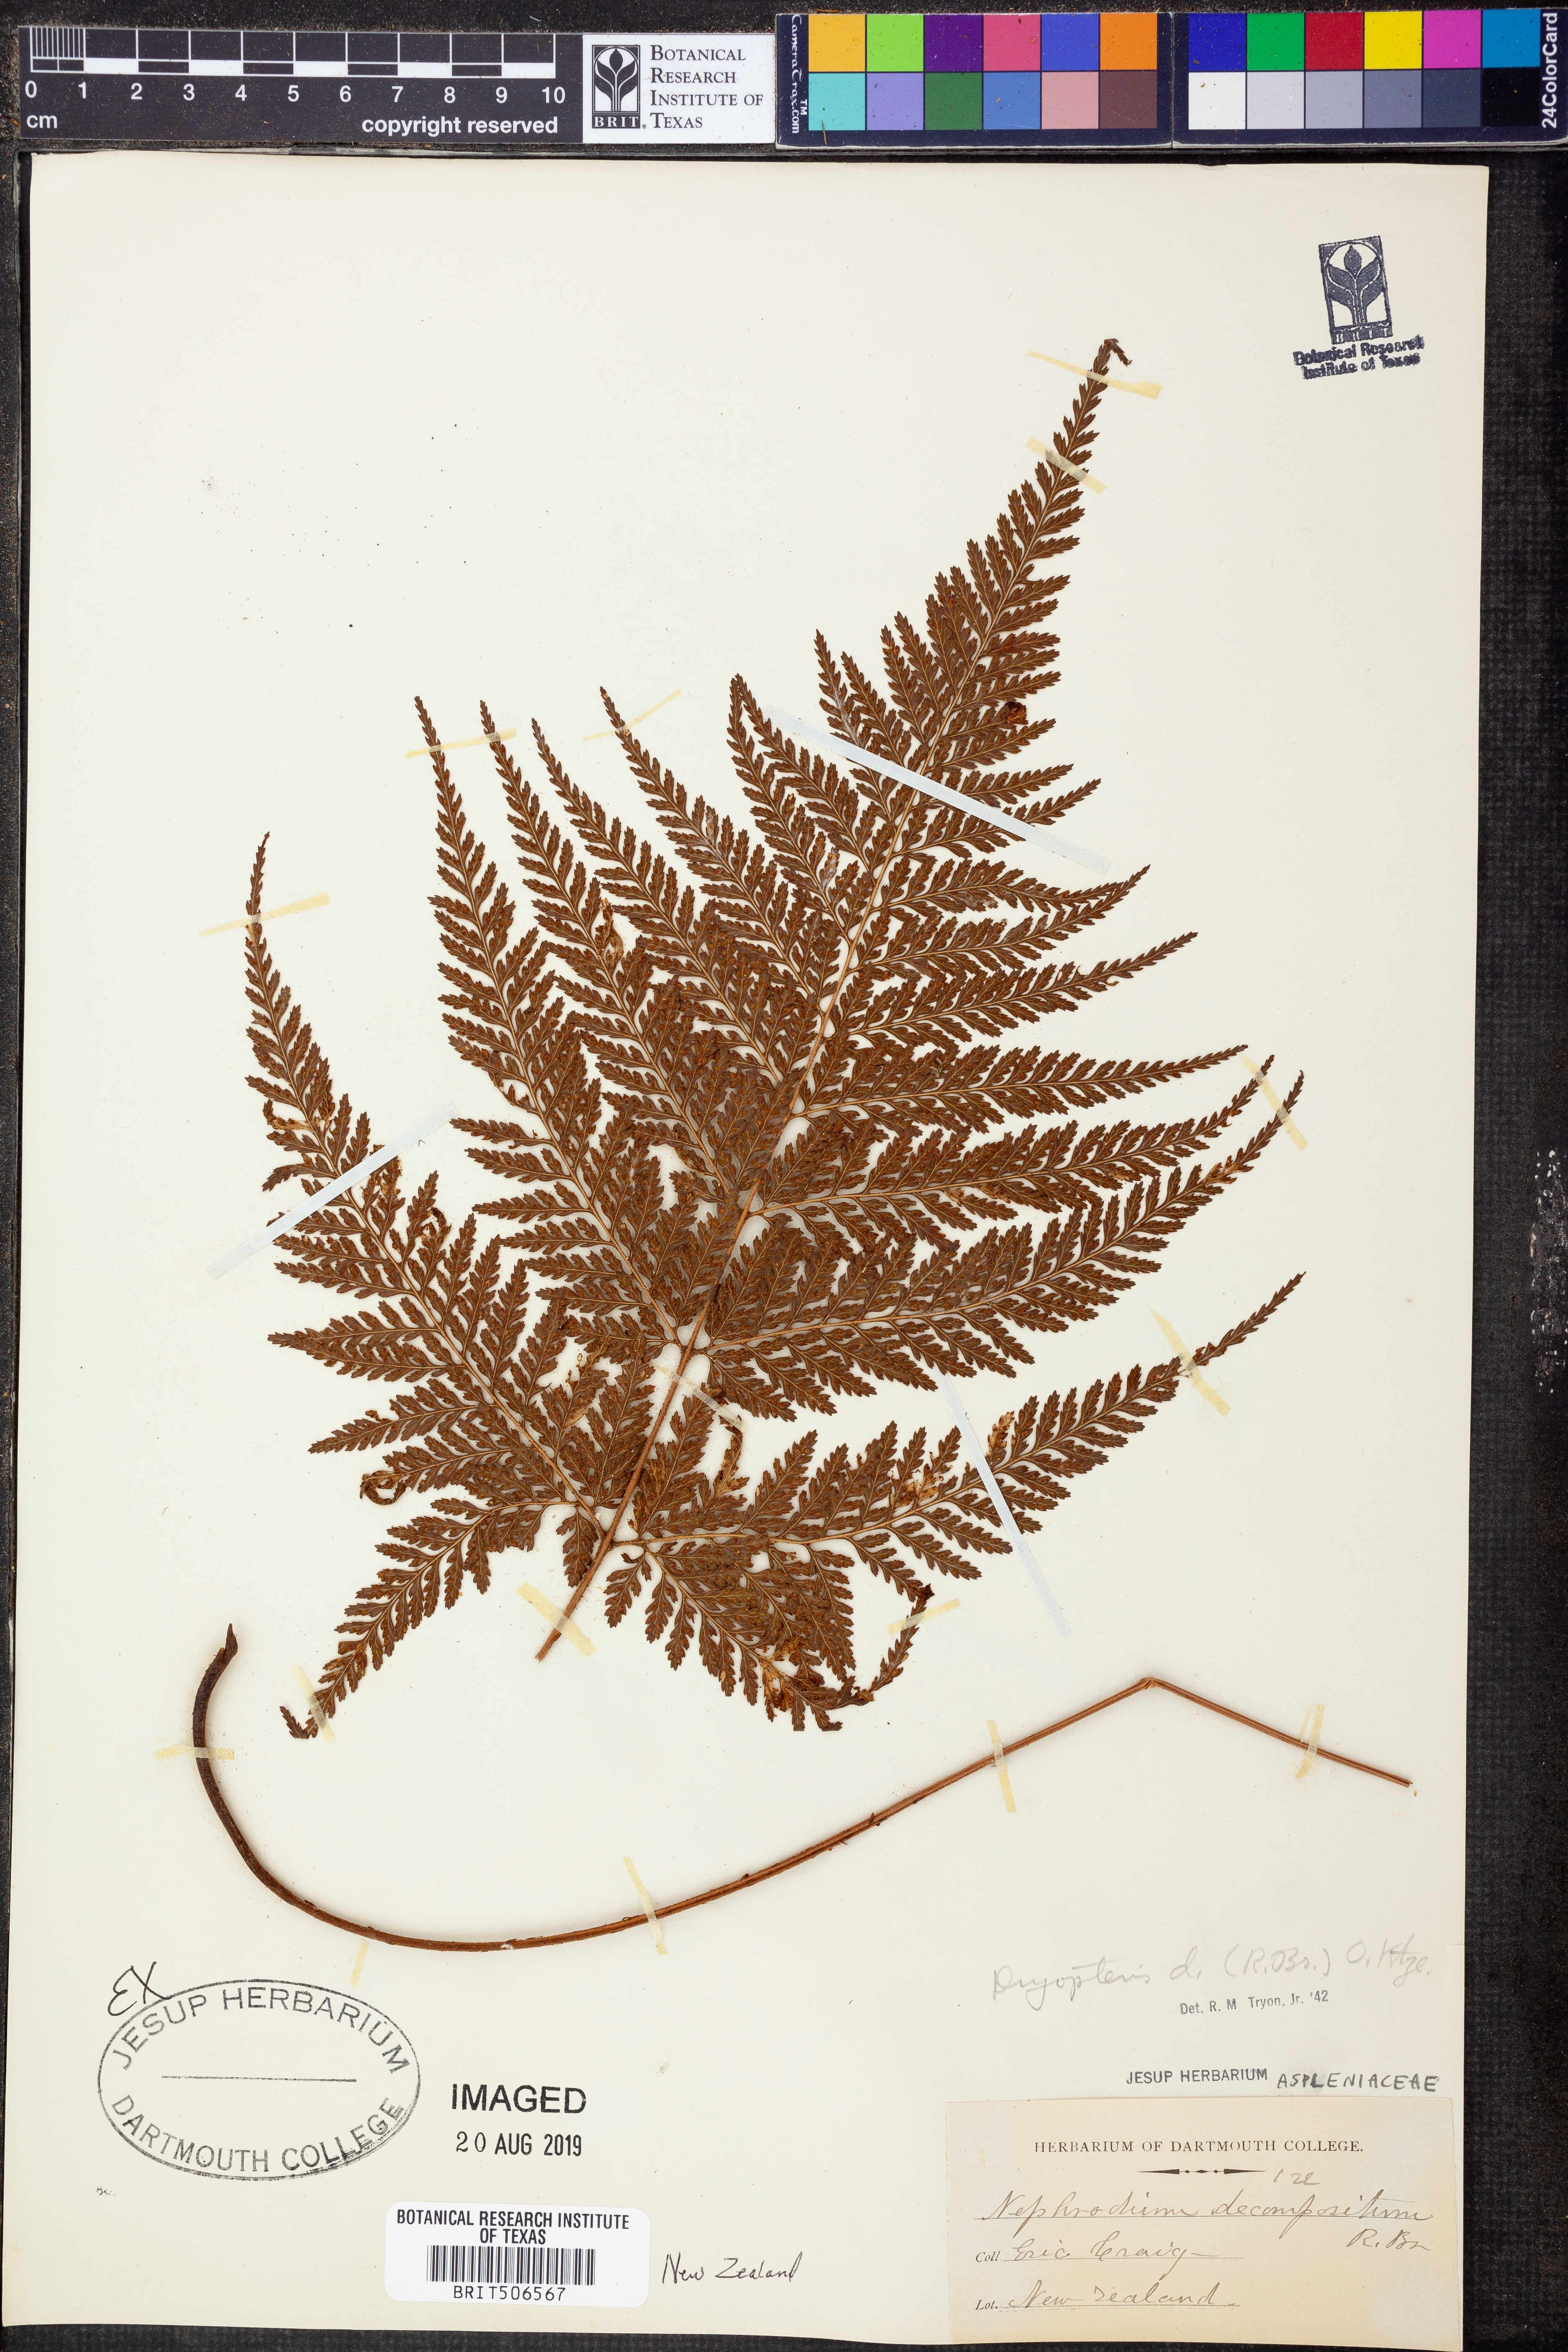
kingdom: Plantae
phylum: Tracheophyta
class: Polypodiopsida
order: Polypodiales
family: Dryopteridaceae
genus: Lastreopsis
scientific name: Lastreopsis decomposita
